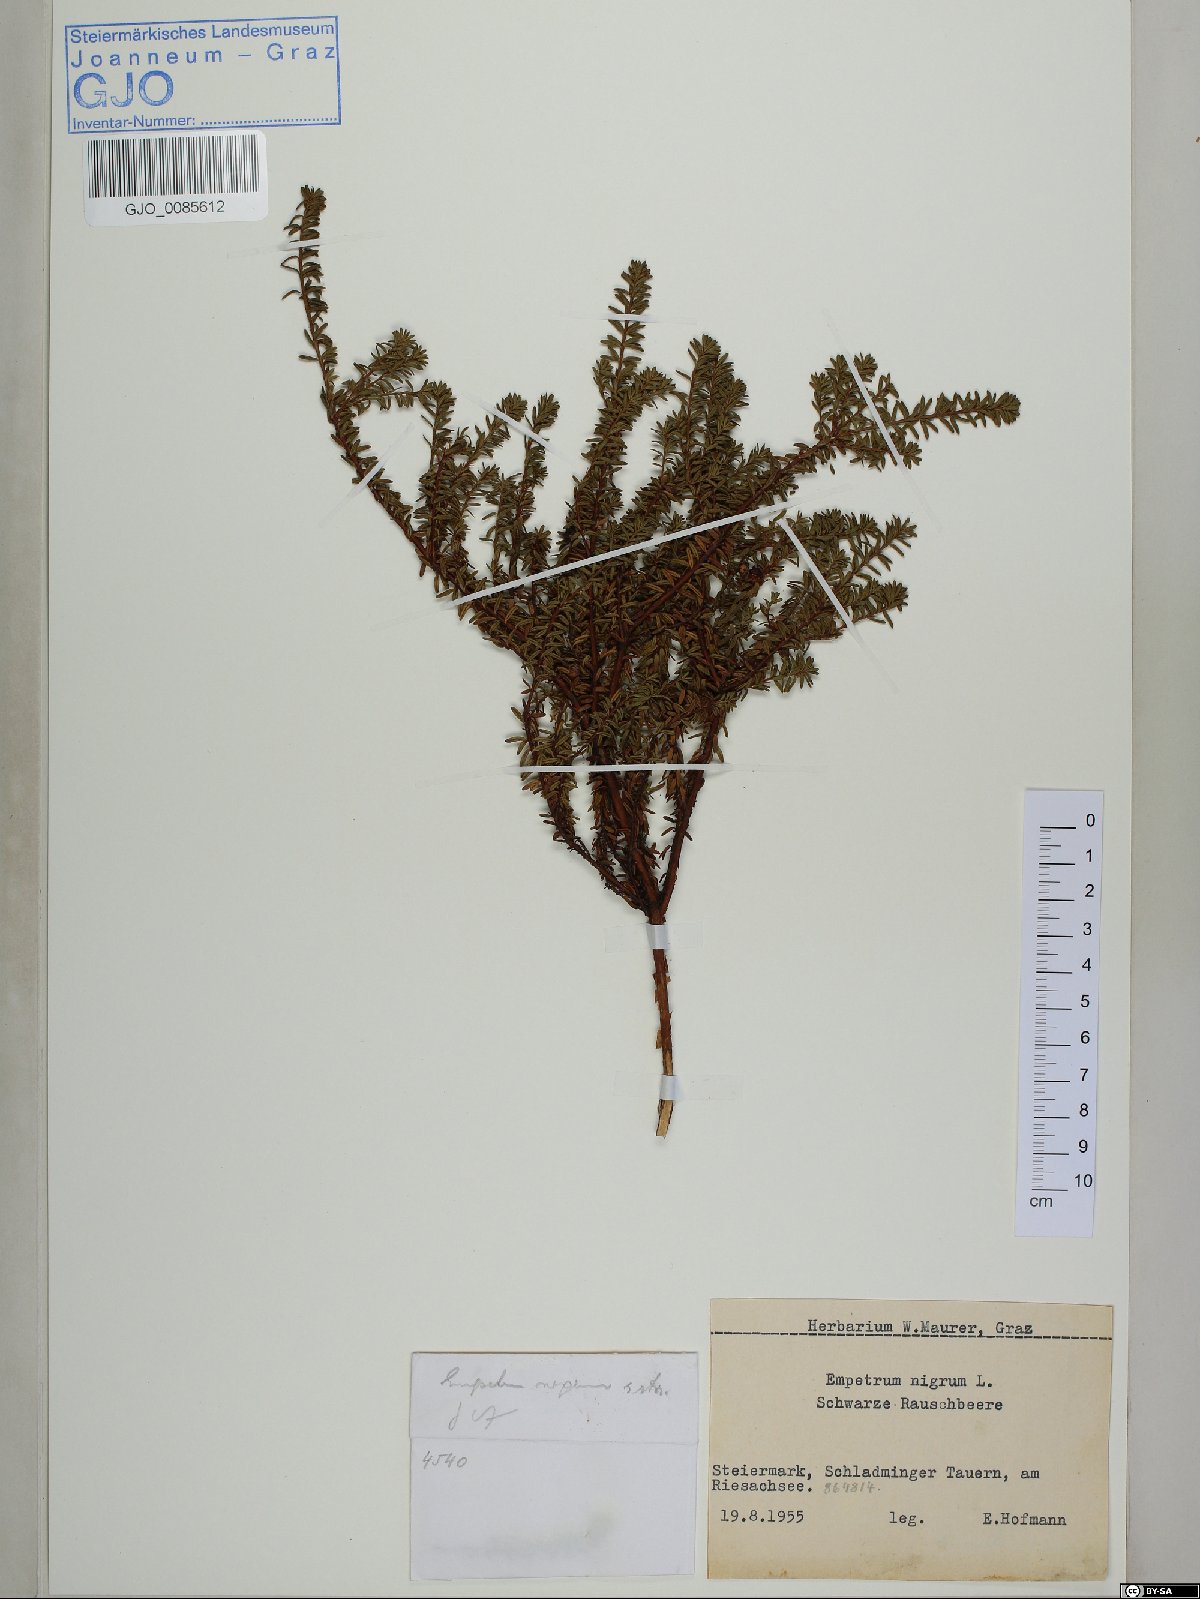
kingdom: Plantae
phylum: Tracheophyta
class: Magnoliopsida
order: Ericales
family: Ericaceae
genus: Empetrum
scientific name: Empetrum nigrum
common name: Black crowberry
